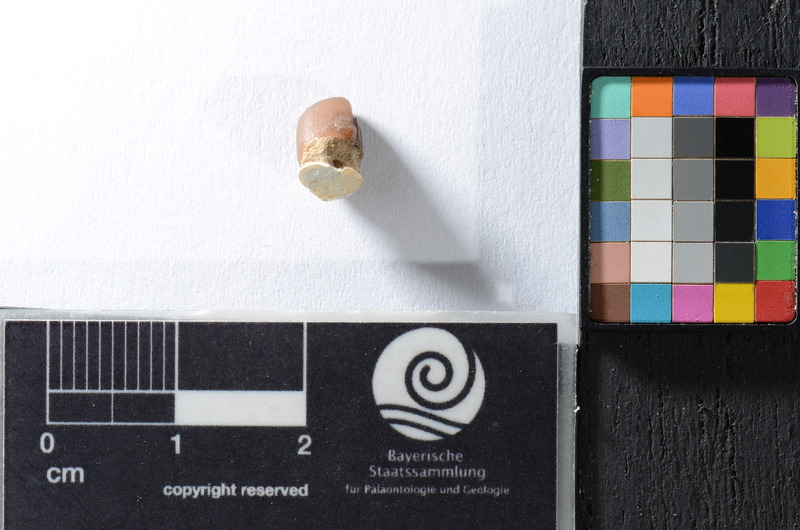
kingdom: Animalia
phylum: Chordata
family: Pycnodontidae
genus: Anomoeodus
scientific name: Anomoeodus
